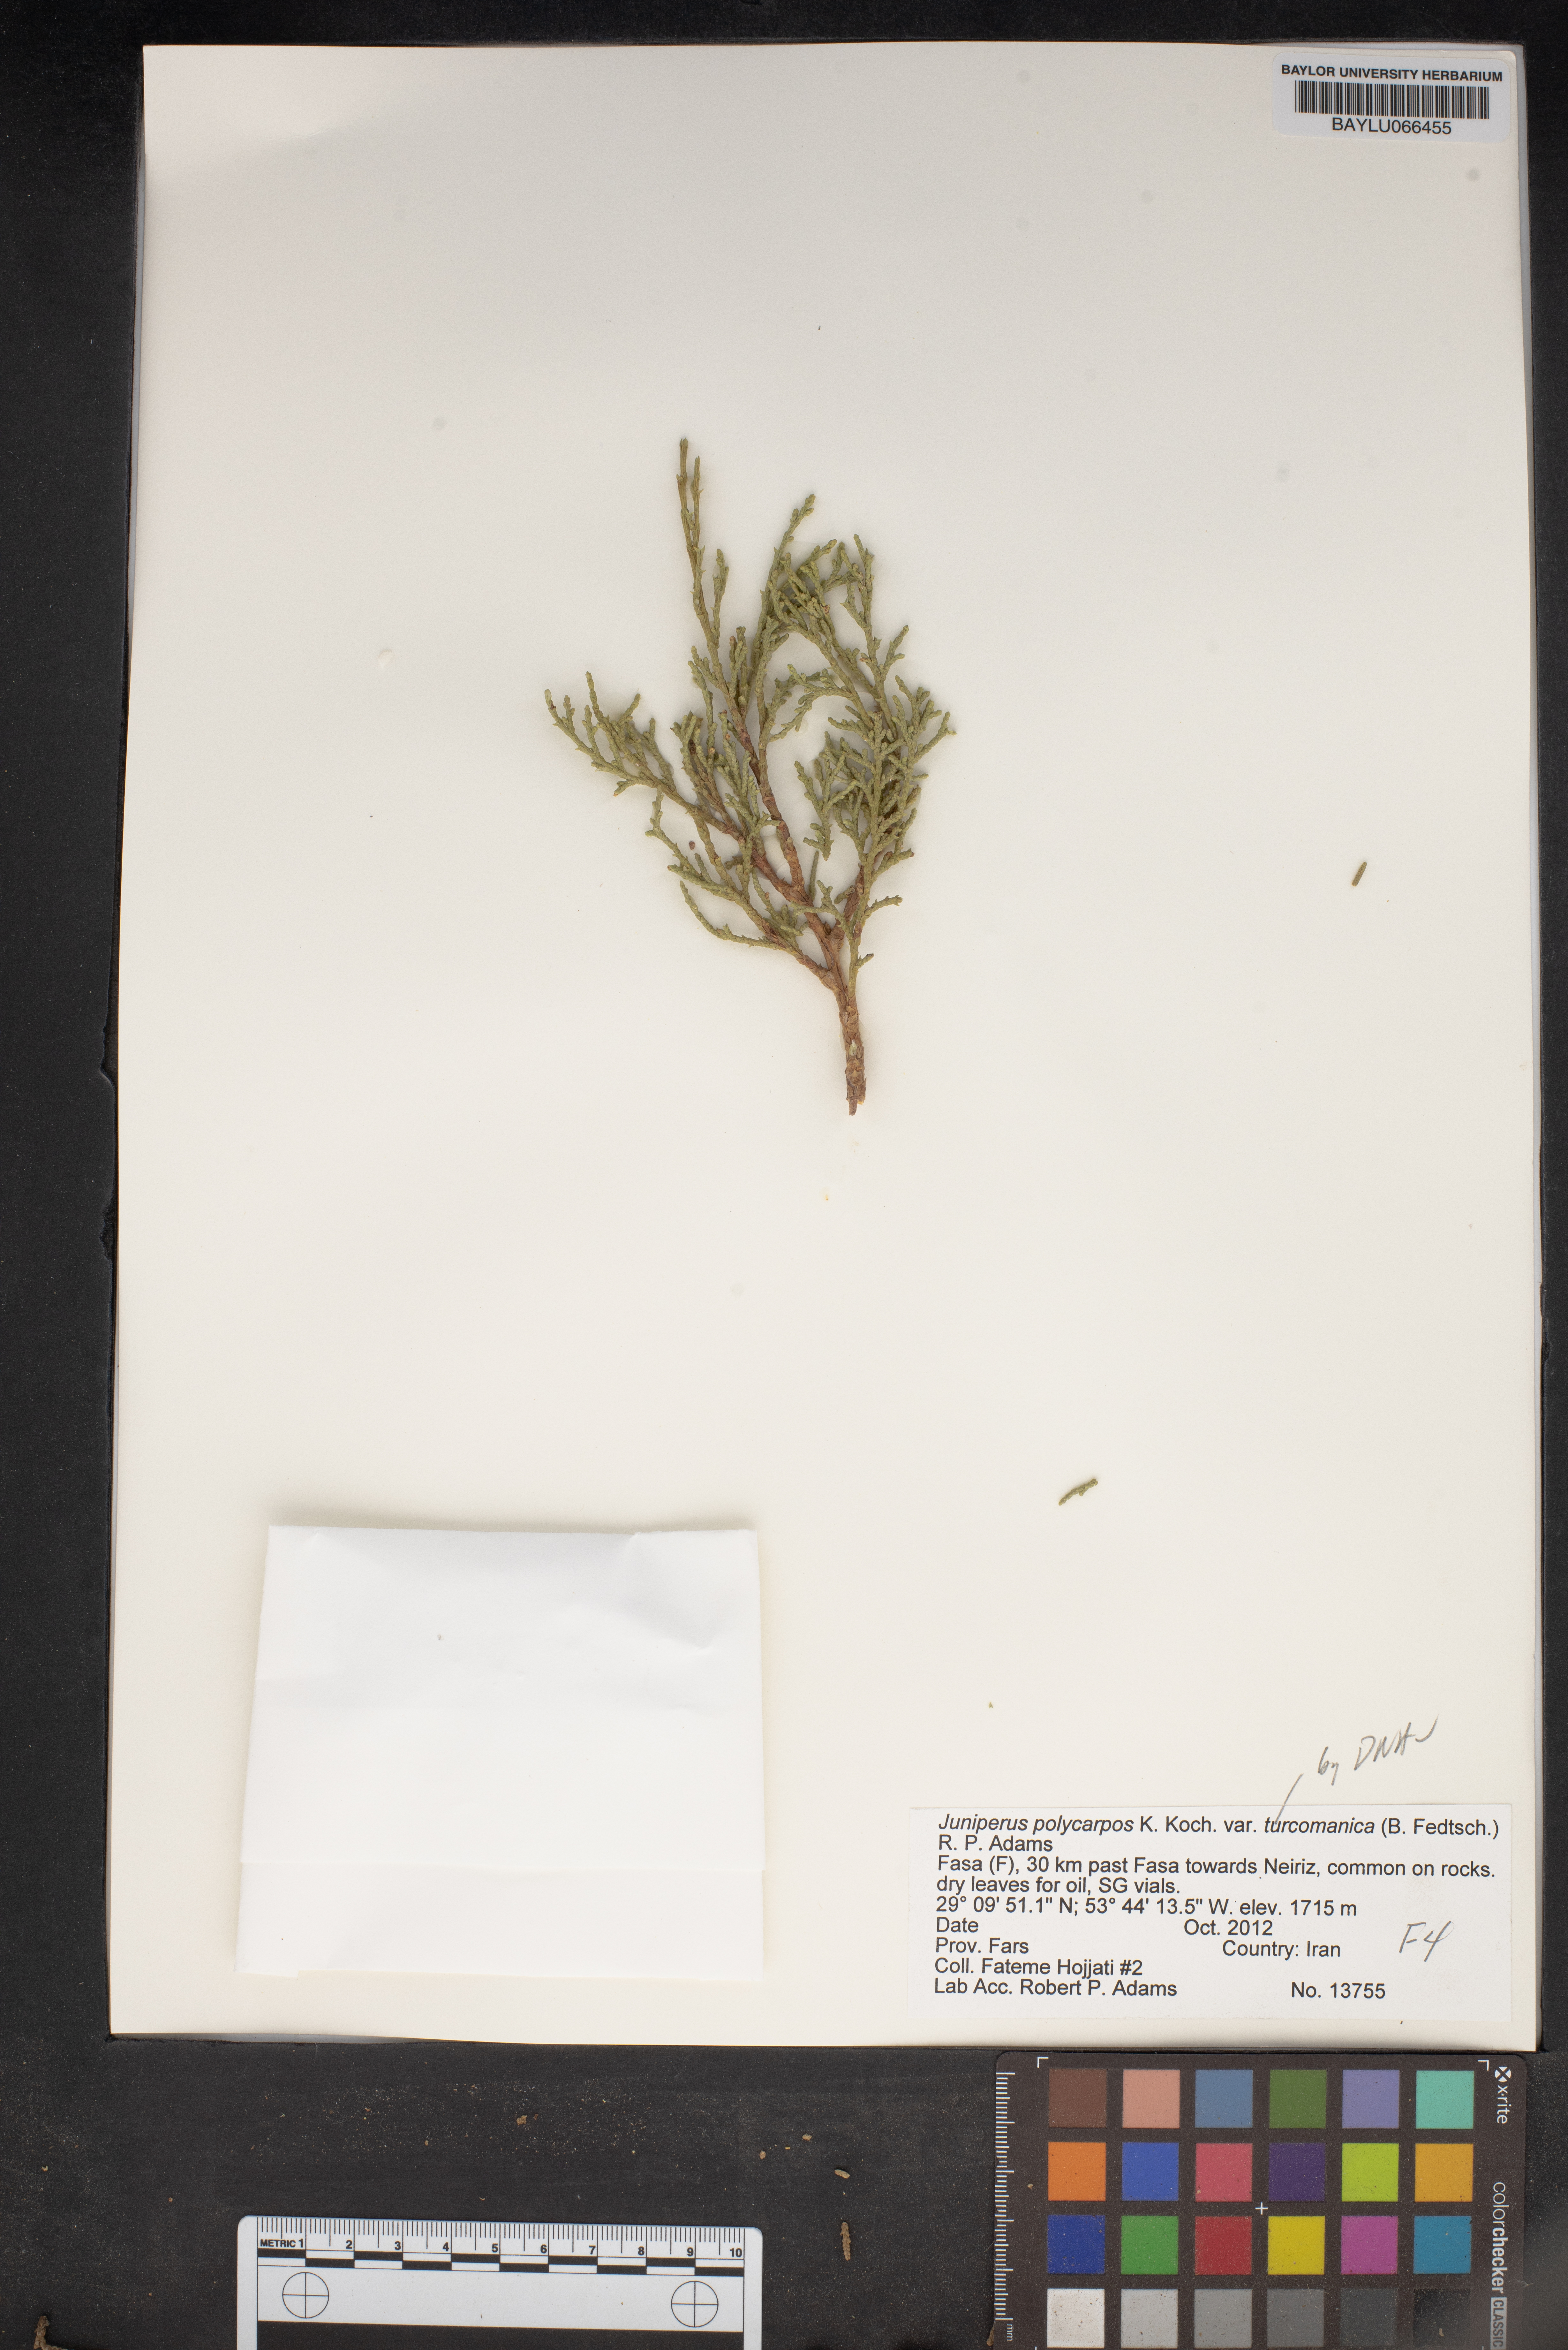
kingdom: Plantae
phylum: Tracheophyta
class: Pinopsida
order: Pinales
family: Cupressaceae
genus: Juniperus
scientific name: Juniperus excelsa
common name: Crimean juniper
